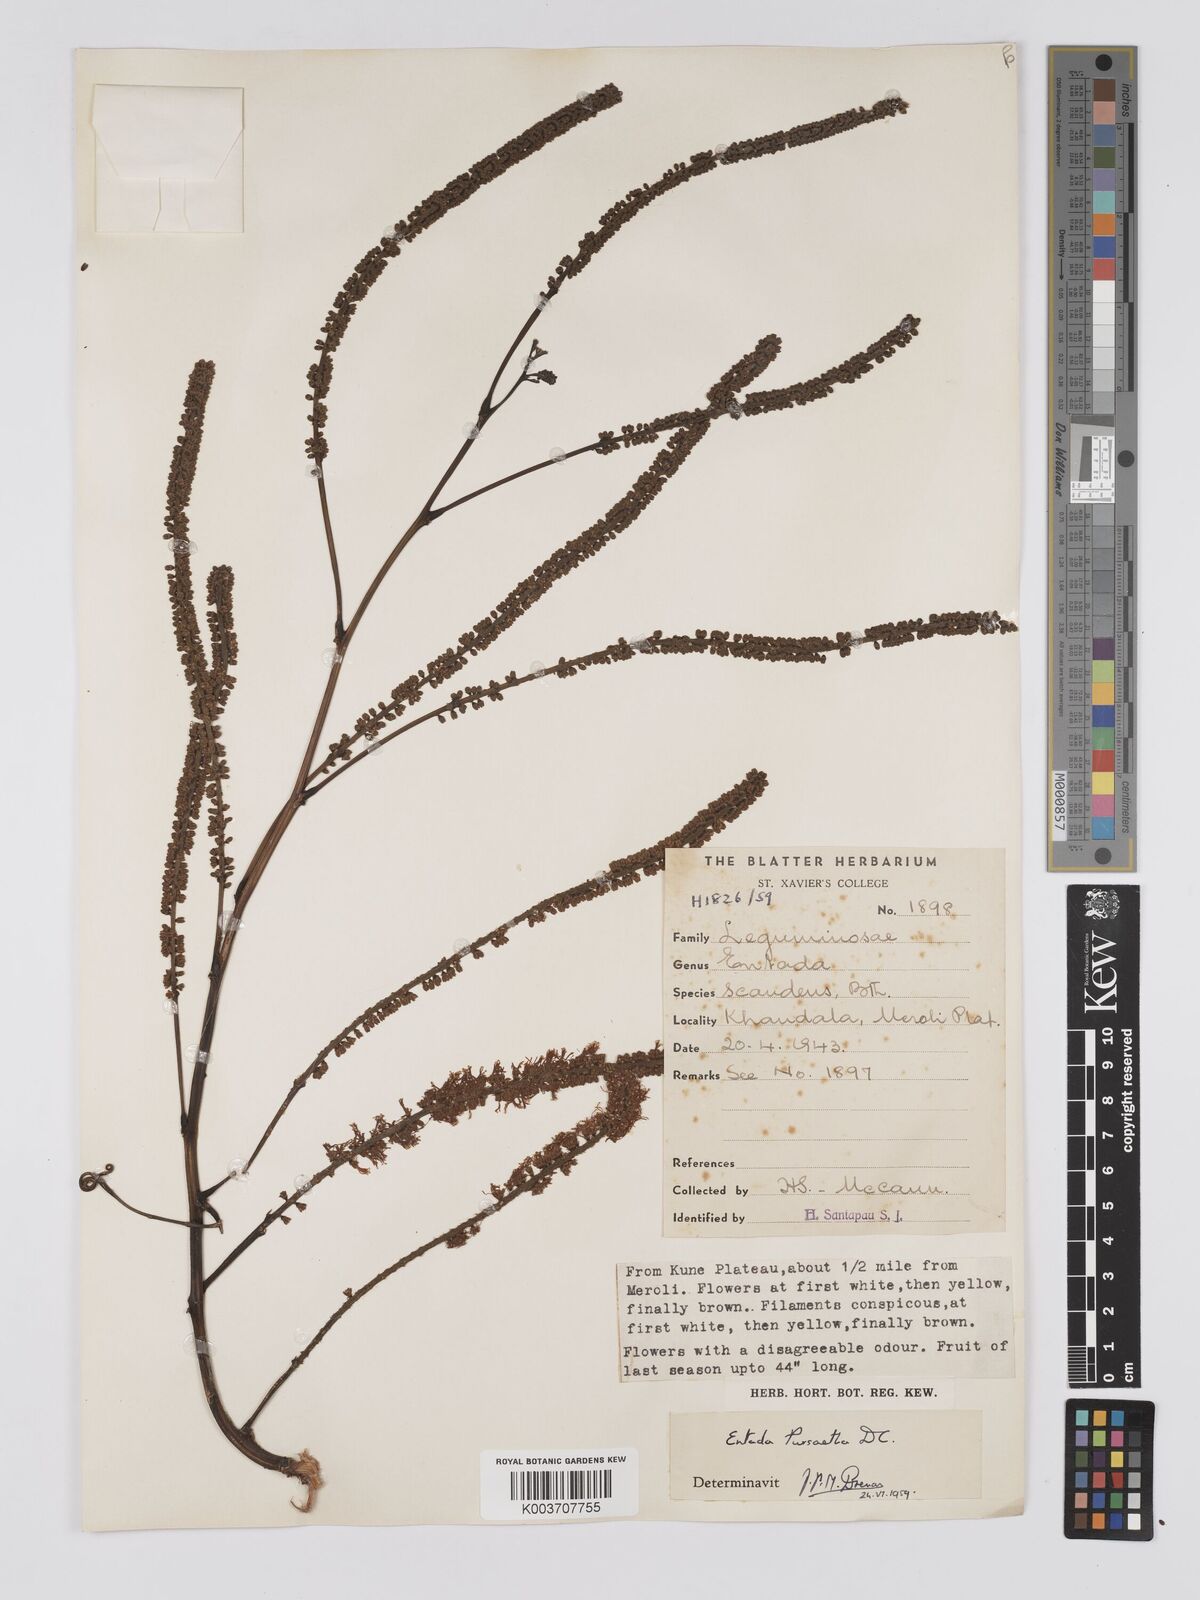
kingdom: Plantae
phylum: Tracheophyta
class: Magnoliopsida
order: Fabales
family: Fabaceae
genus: Entada
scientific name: Entada rheedei
